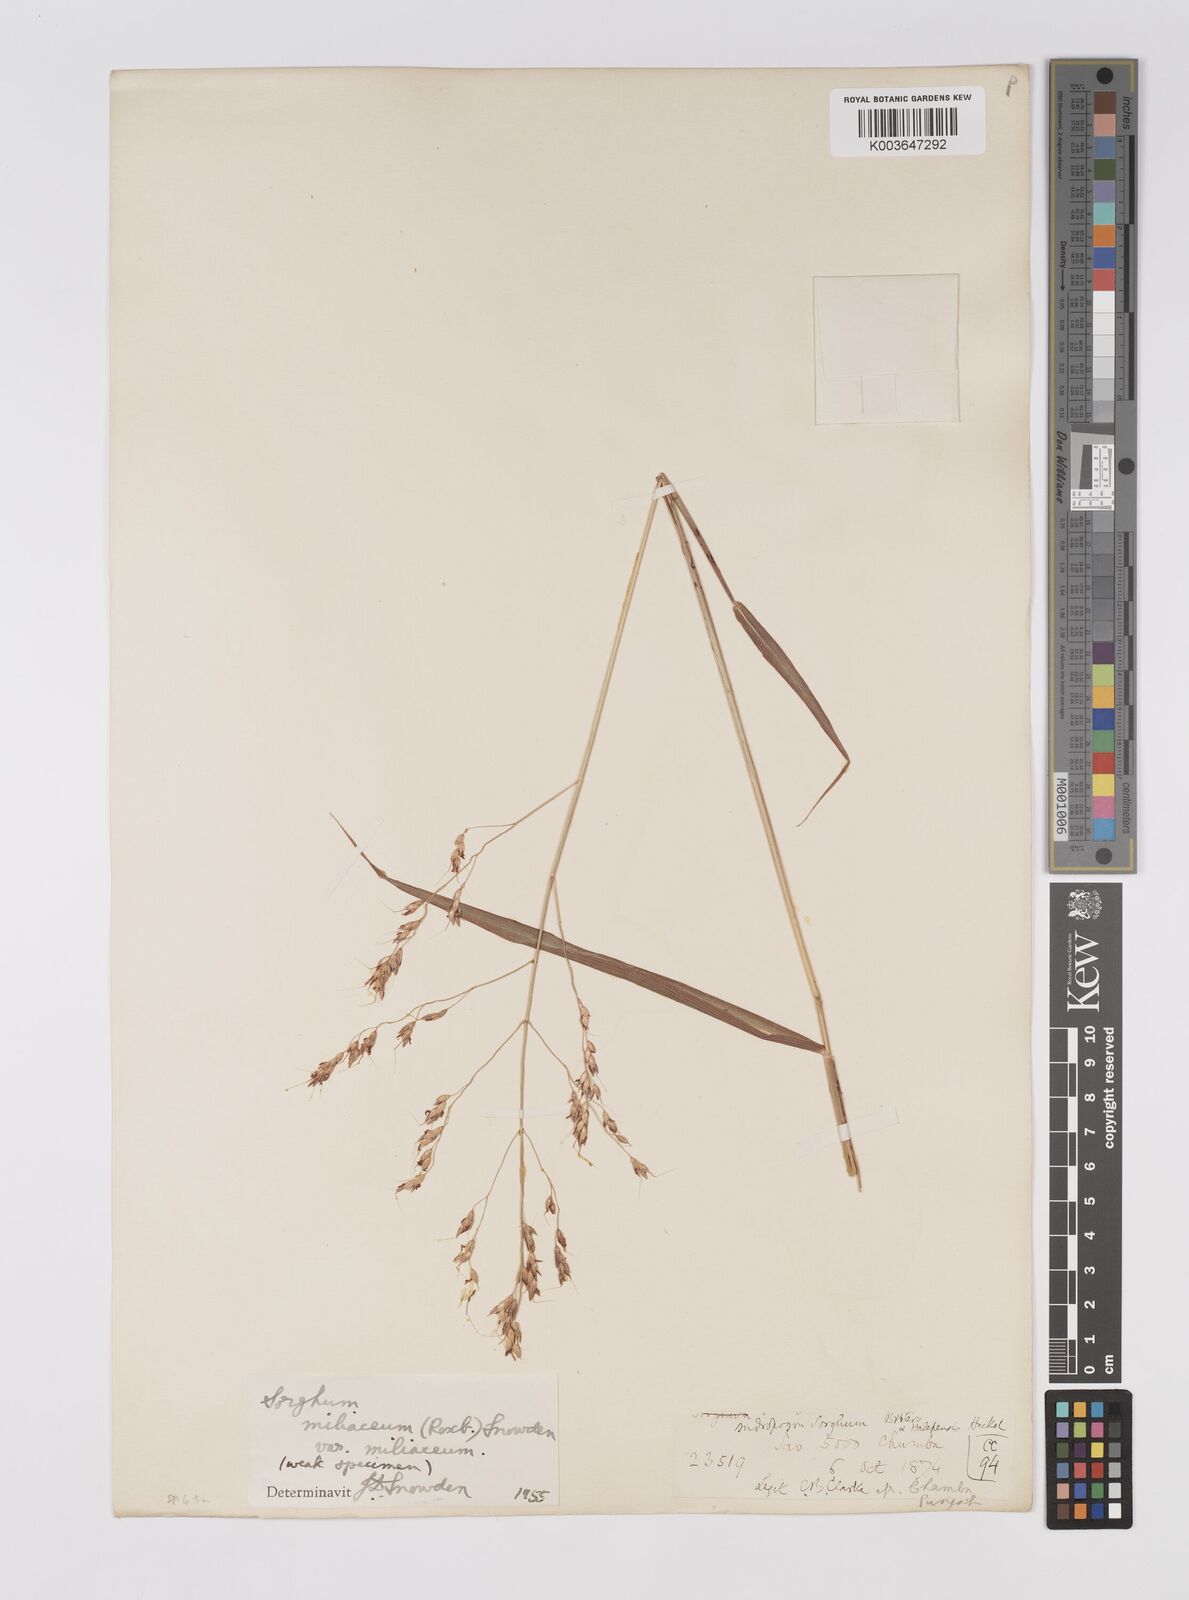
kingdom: Plantae
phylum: Tracheophyta
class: Liliopsida
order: Poales
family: Poaceae
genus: Sorghum
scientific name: Sorghum halepense
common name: Johnson-grass
